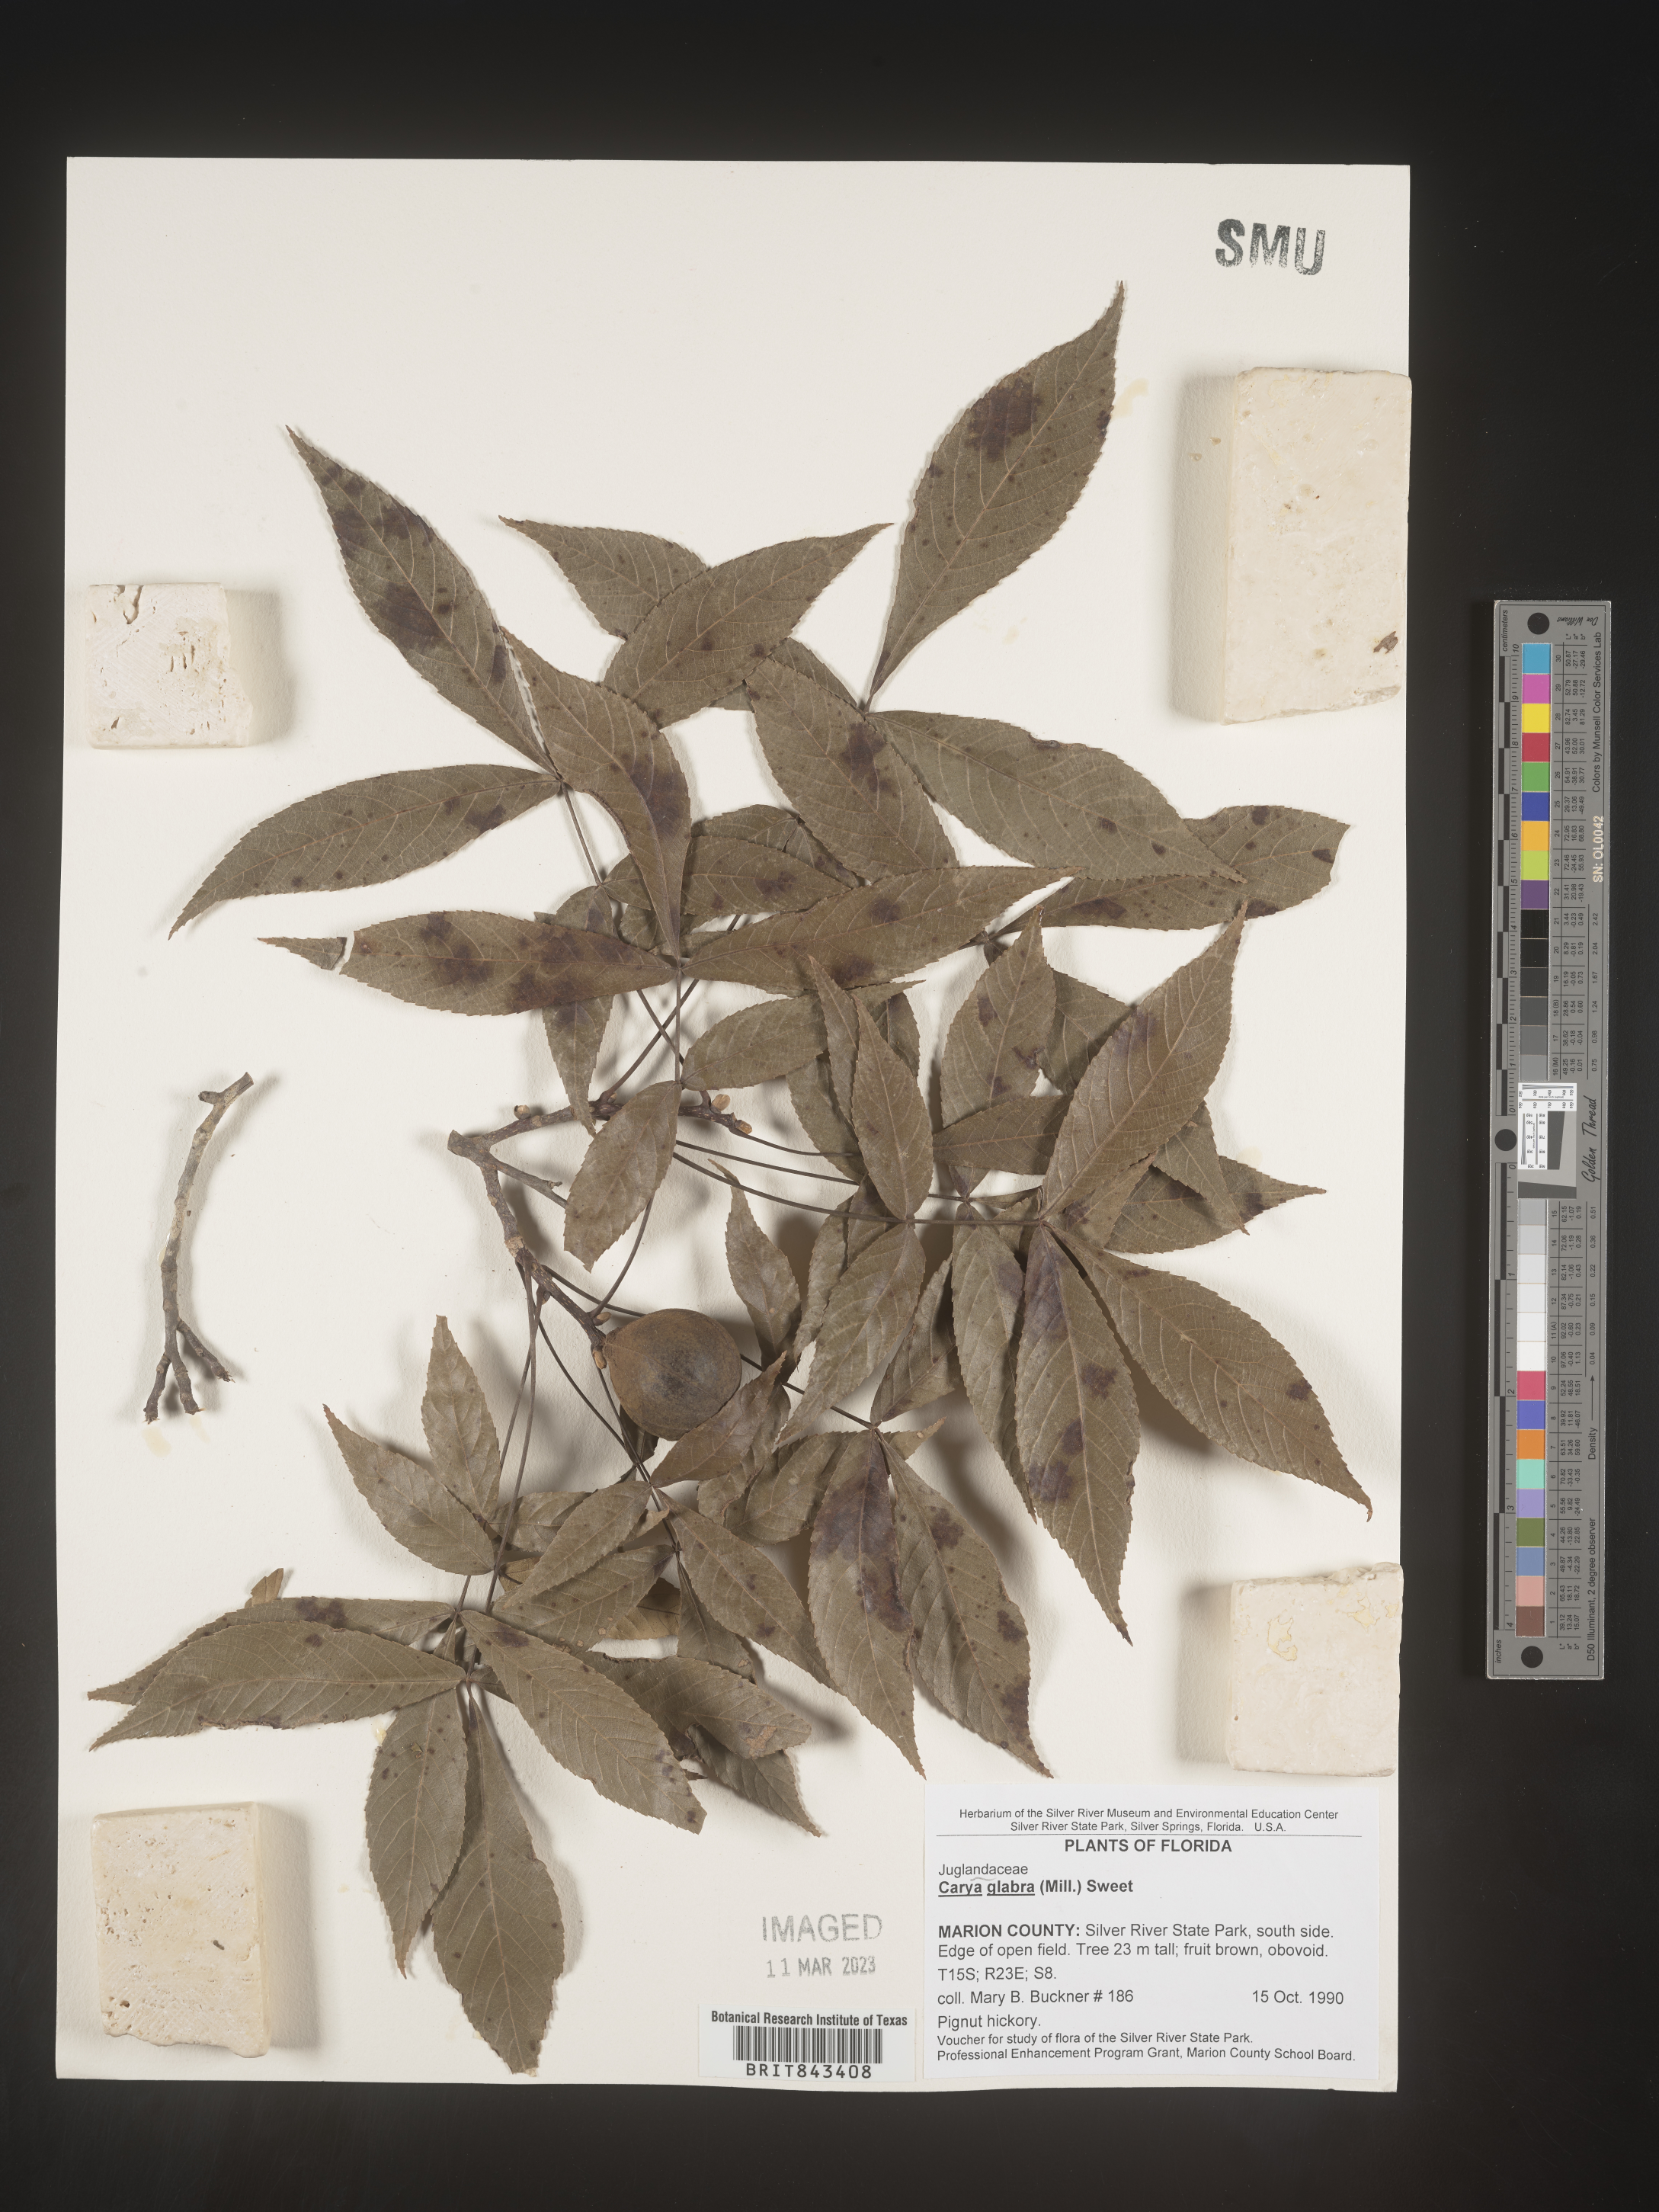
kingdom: Plantae
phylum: Tracheophyta
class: Magnoliopsida
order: Fagales
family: Juglandaceae
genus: Carya
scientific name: Carya glabra
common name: Pignut hickory
